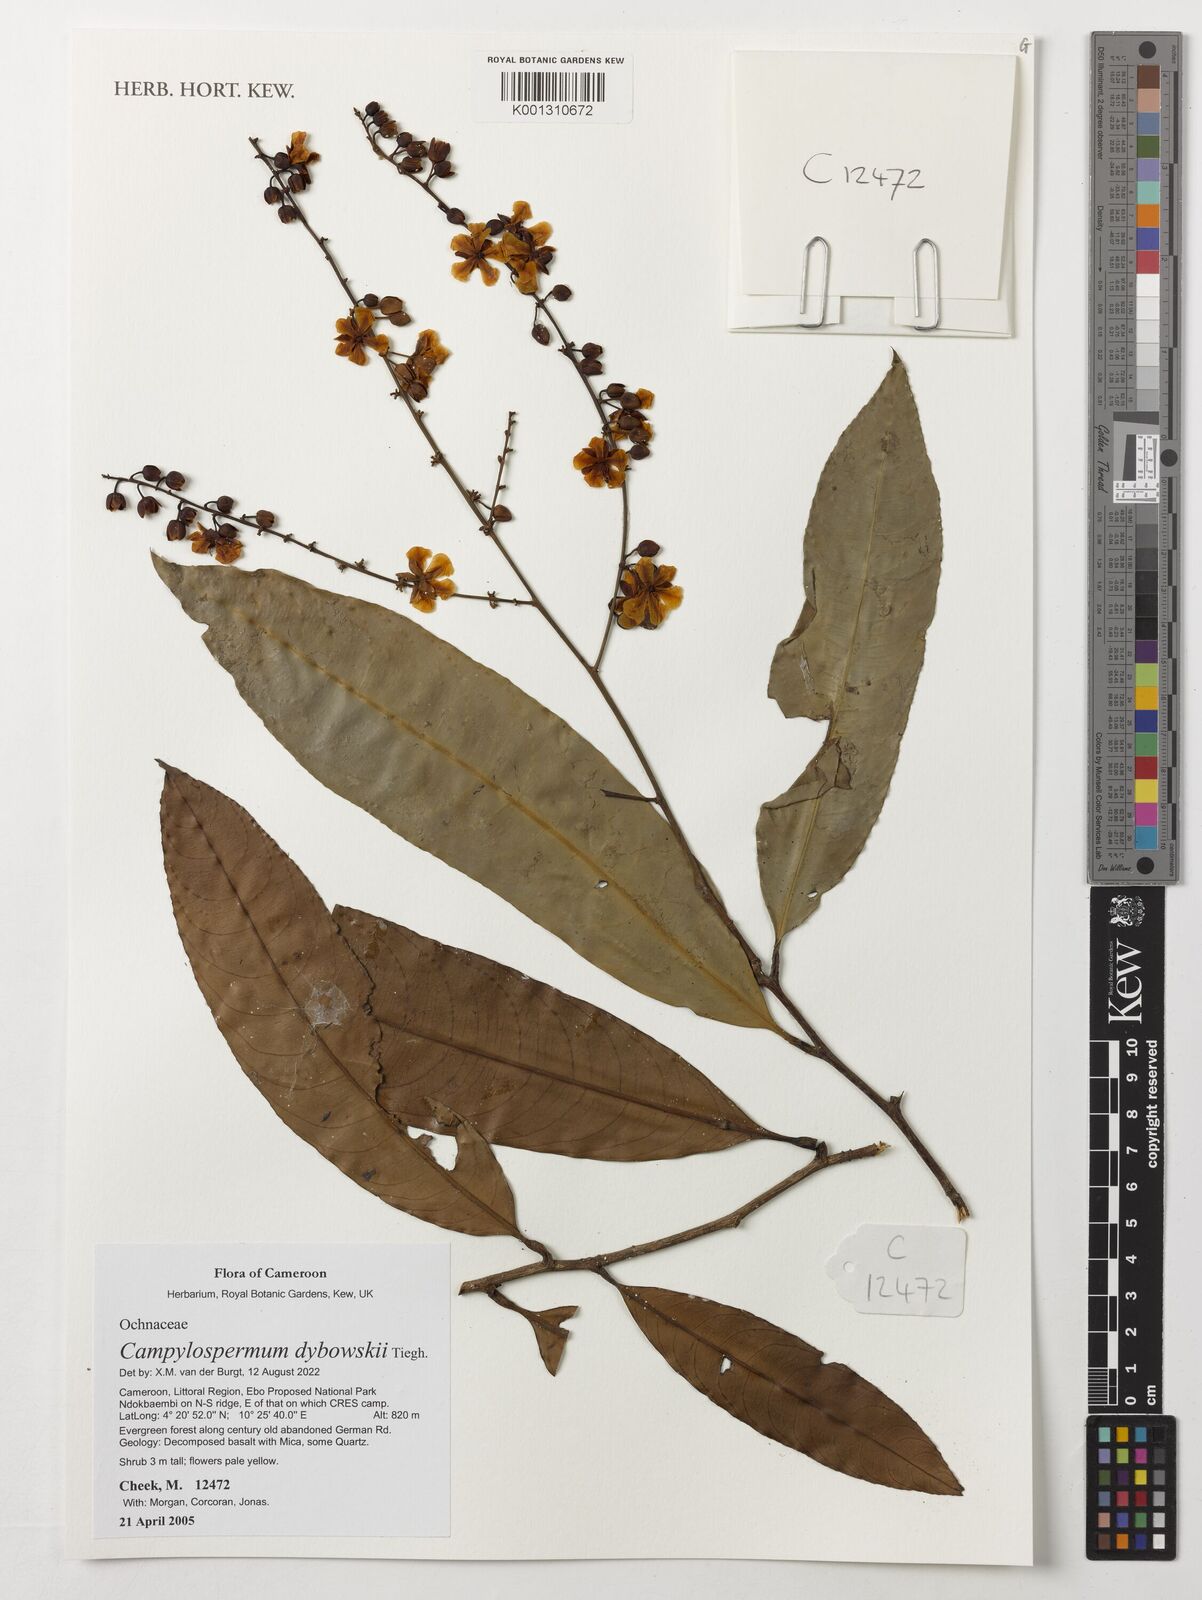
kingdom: Plantae
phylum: Tracheophyta
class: Magnoliopsida
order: Malpighiales
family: Ochnaceae
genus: Campylospermum
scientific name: Campylospermum dybovskii
